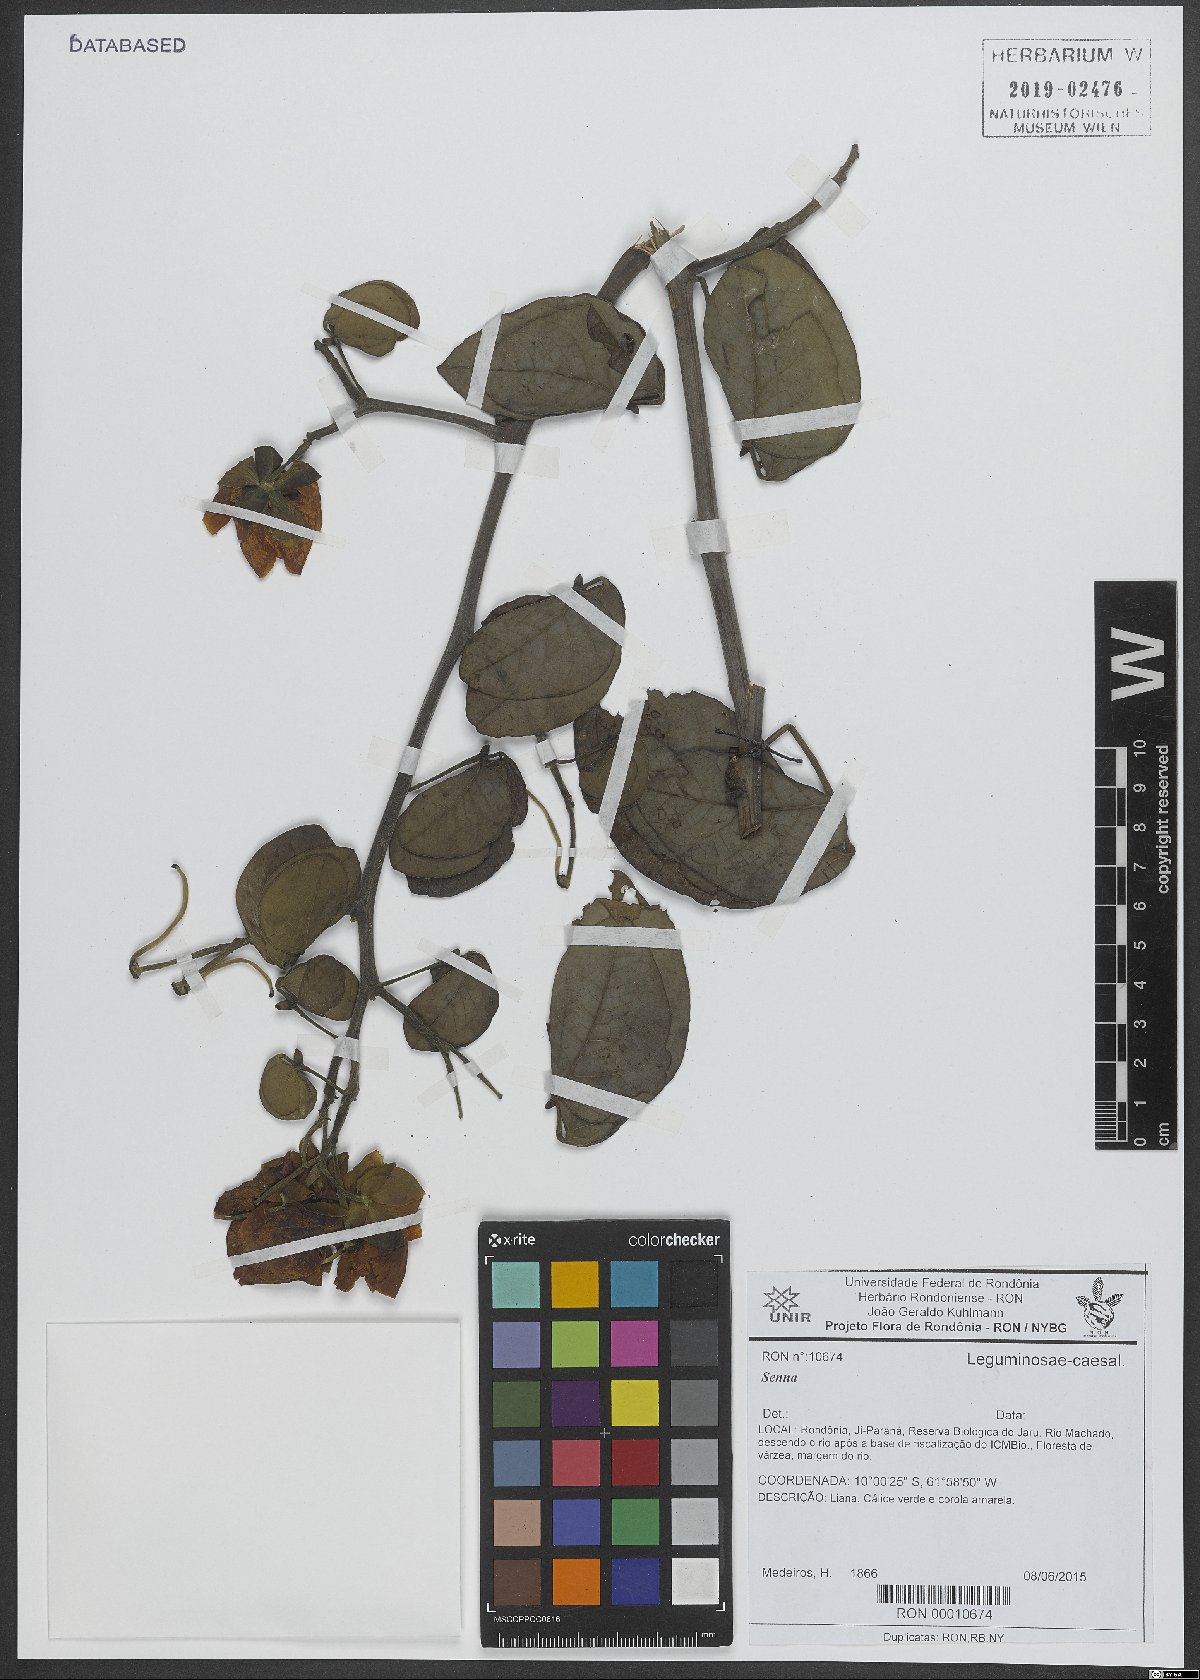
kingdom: Plantae
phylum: Tracheophyta
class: Magnoliopsida
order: Fabales
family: Fabaceae
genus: Senna
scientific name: Senna
